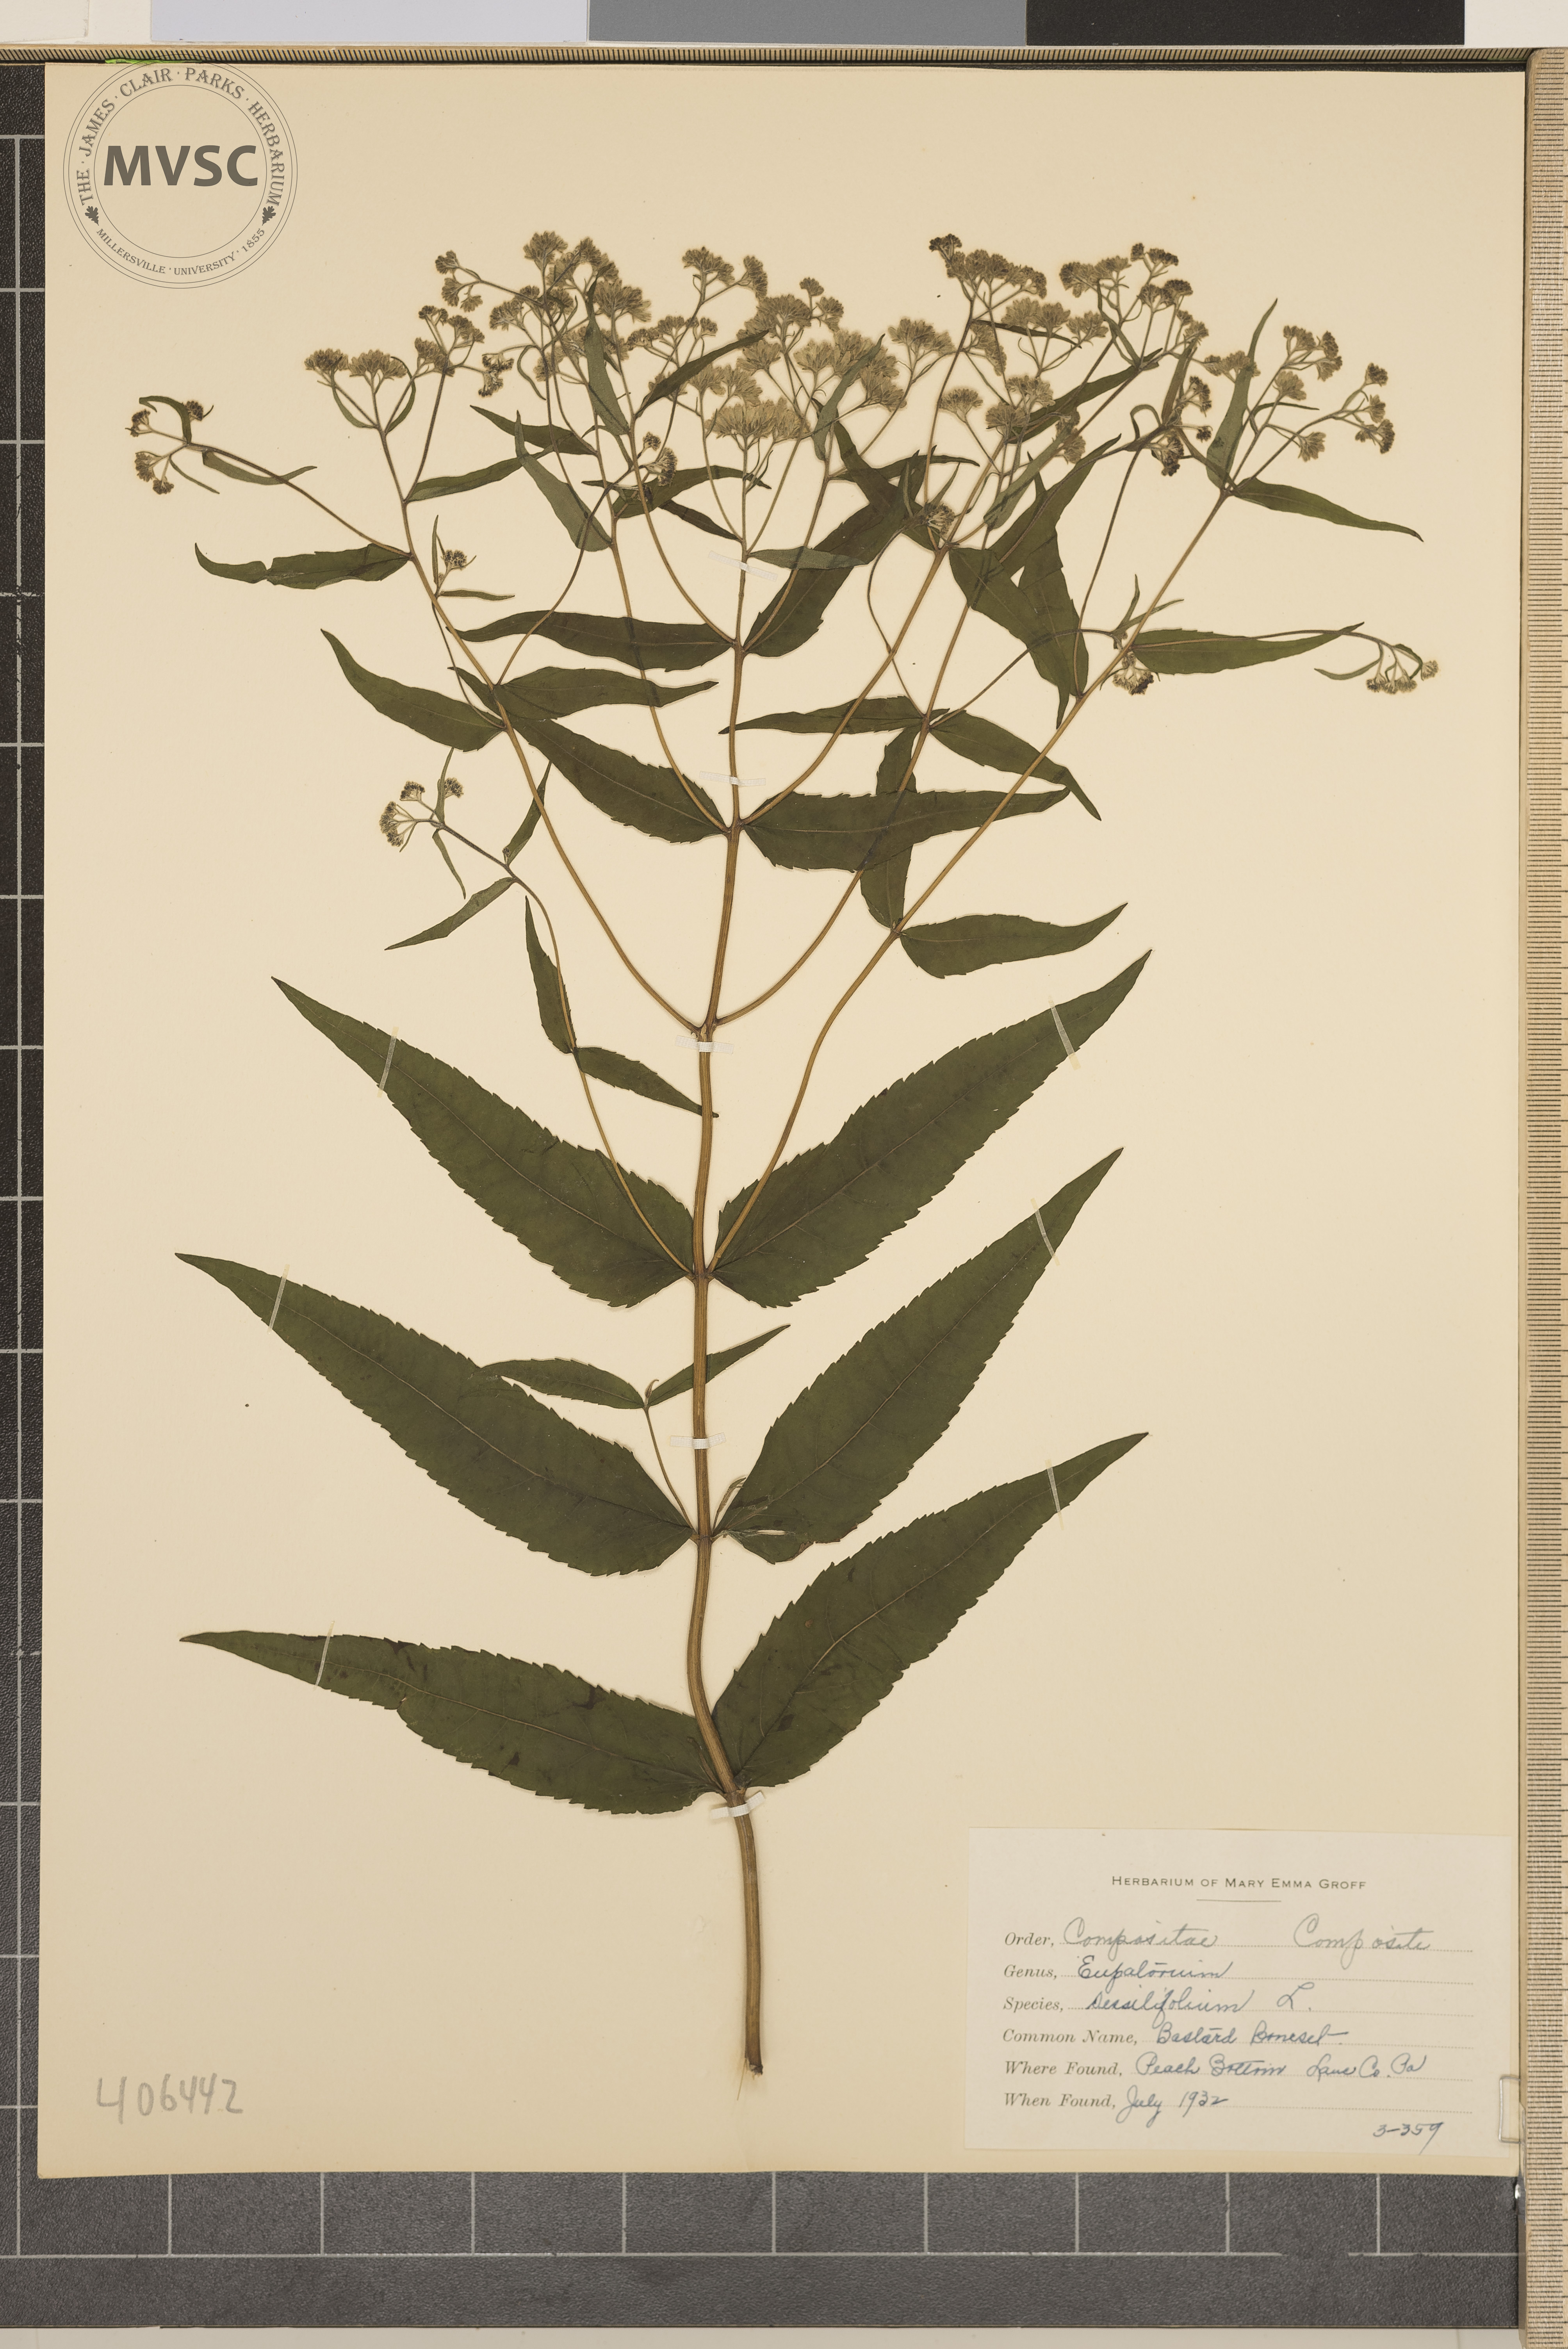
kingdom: Plantae
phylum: Tracheophyta
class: Magnoliopsida
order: Asterales
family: Asteraceae
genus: Eupatorium
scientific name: Eupatorium sessilifolium
